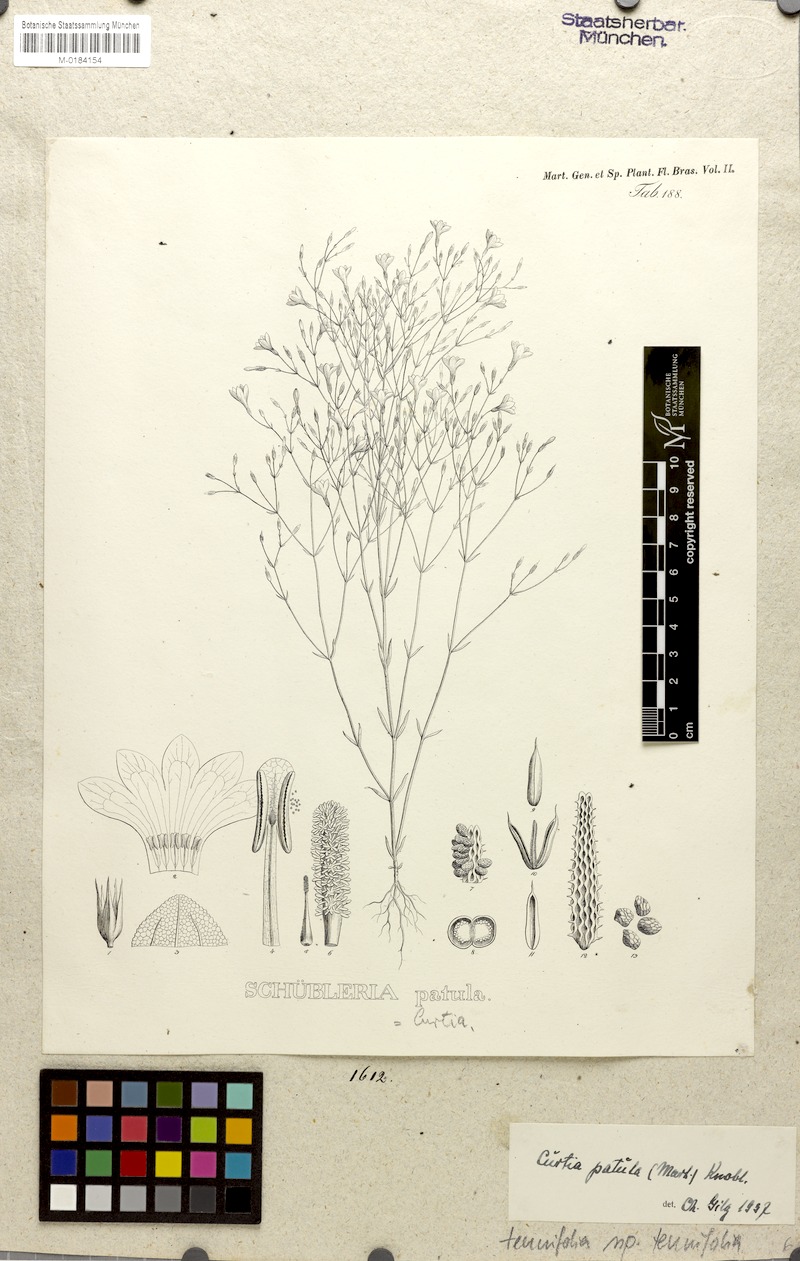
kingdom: Plantae
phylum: Tracheophyta
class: Magnoliopsida
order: Gentianales
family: Gentianaceae
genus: Curtia
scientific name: Curtia tenuifolia
